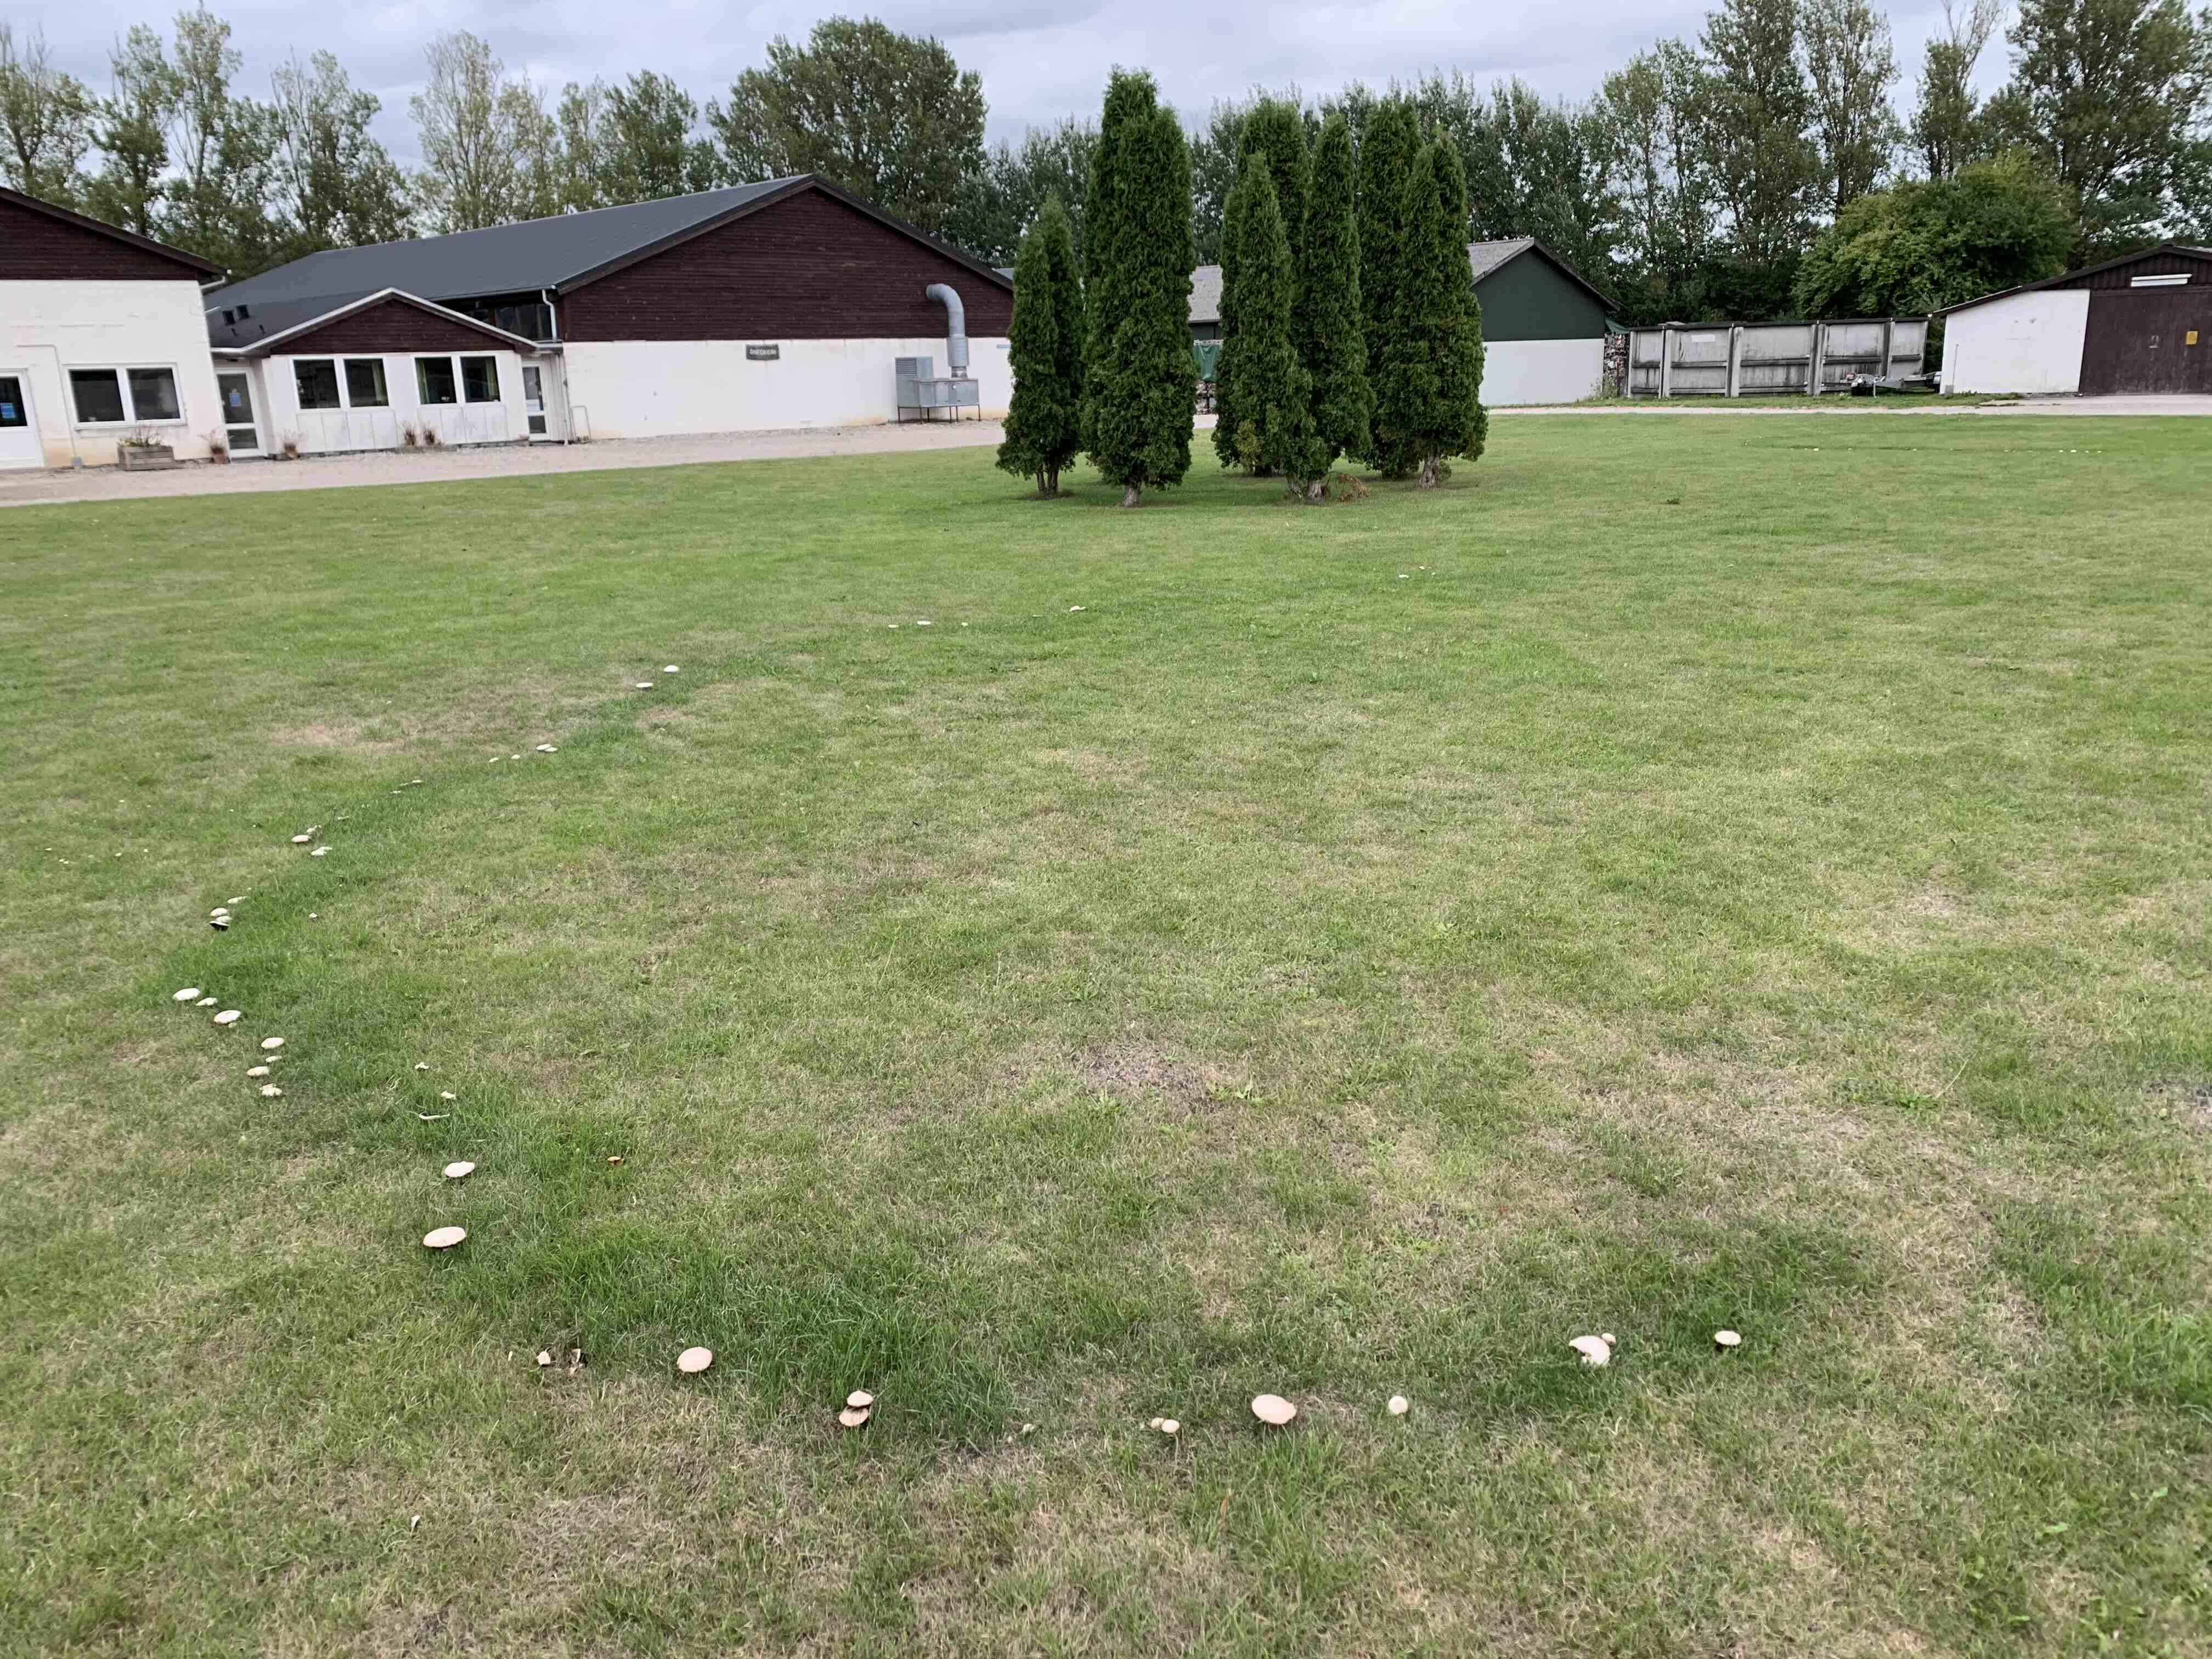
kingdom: Fungi
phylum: Basidiomycota
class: Agaricomycetes
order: Agaricales
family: Agaricaceae
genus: Agaricus
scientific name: Agaricus campestris
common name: mark-champignon
